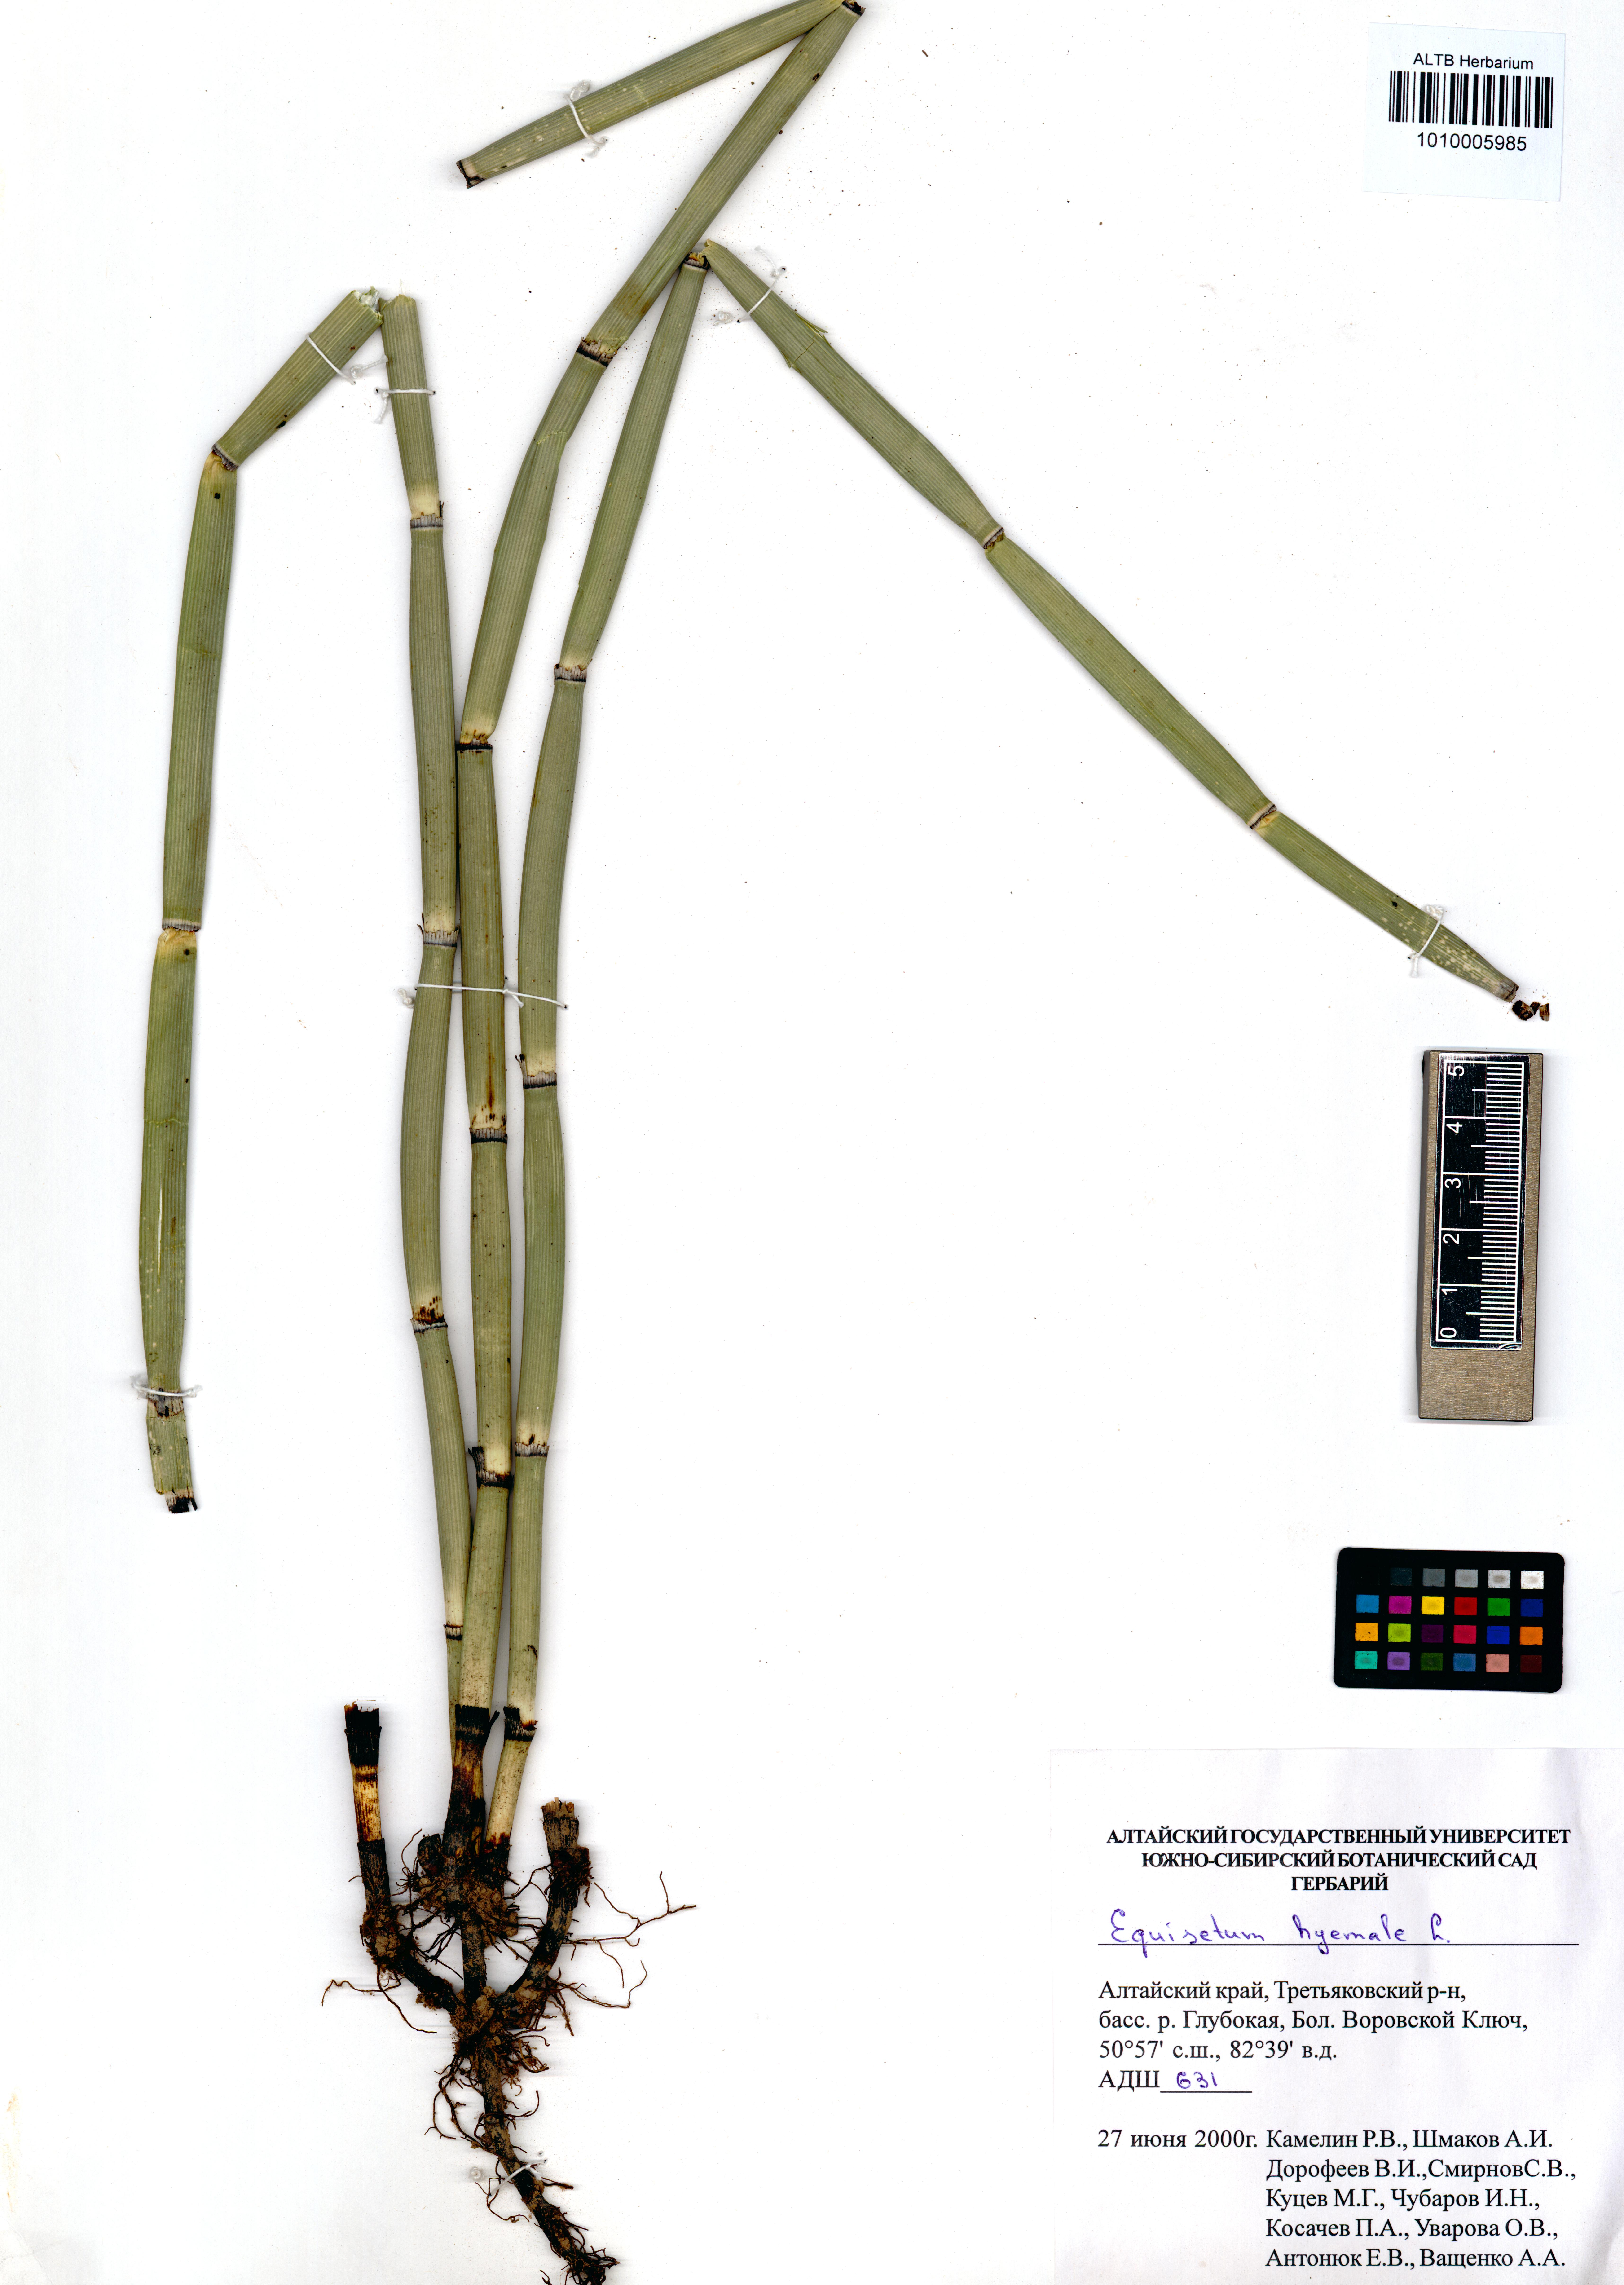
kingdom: Plantae
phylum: Tracheophyta
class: Polypodiopsida
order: Equisetales
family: Equisetaceae
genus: Equisetum
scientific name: Equisetum hyemale
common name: Rough horsetail
